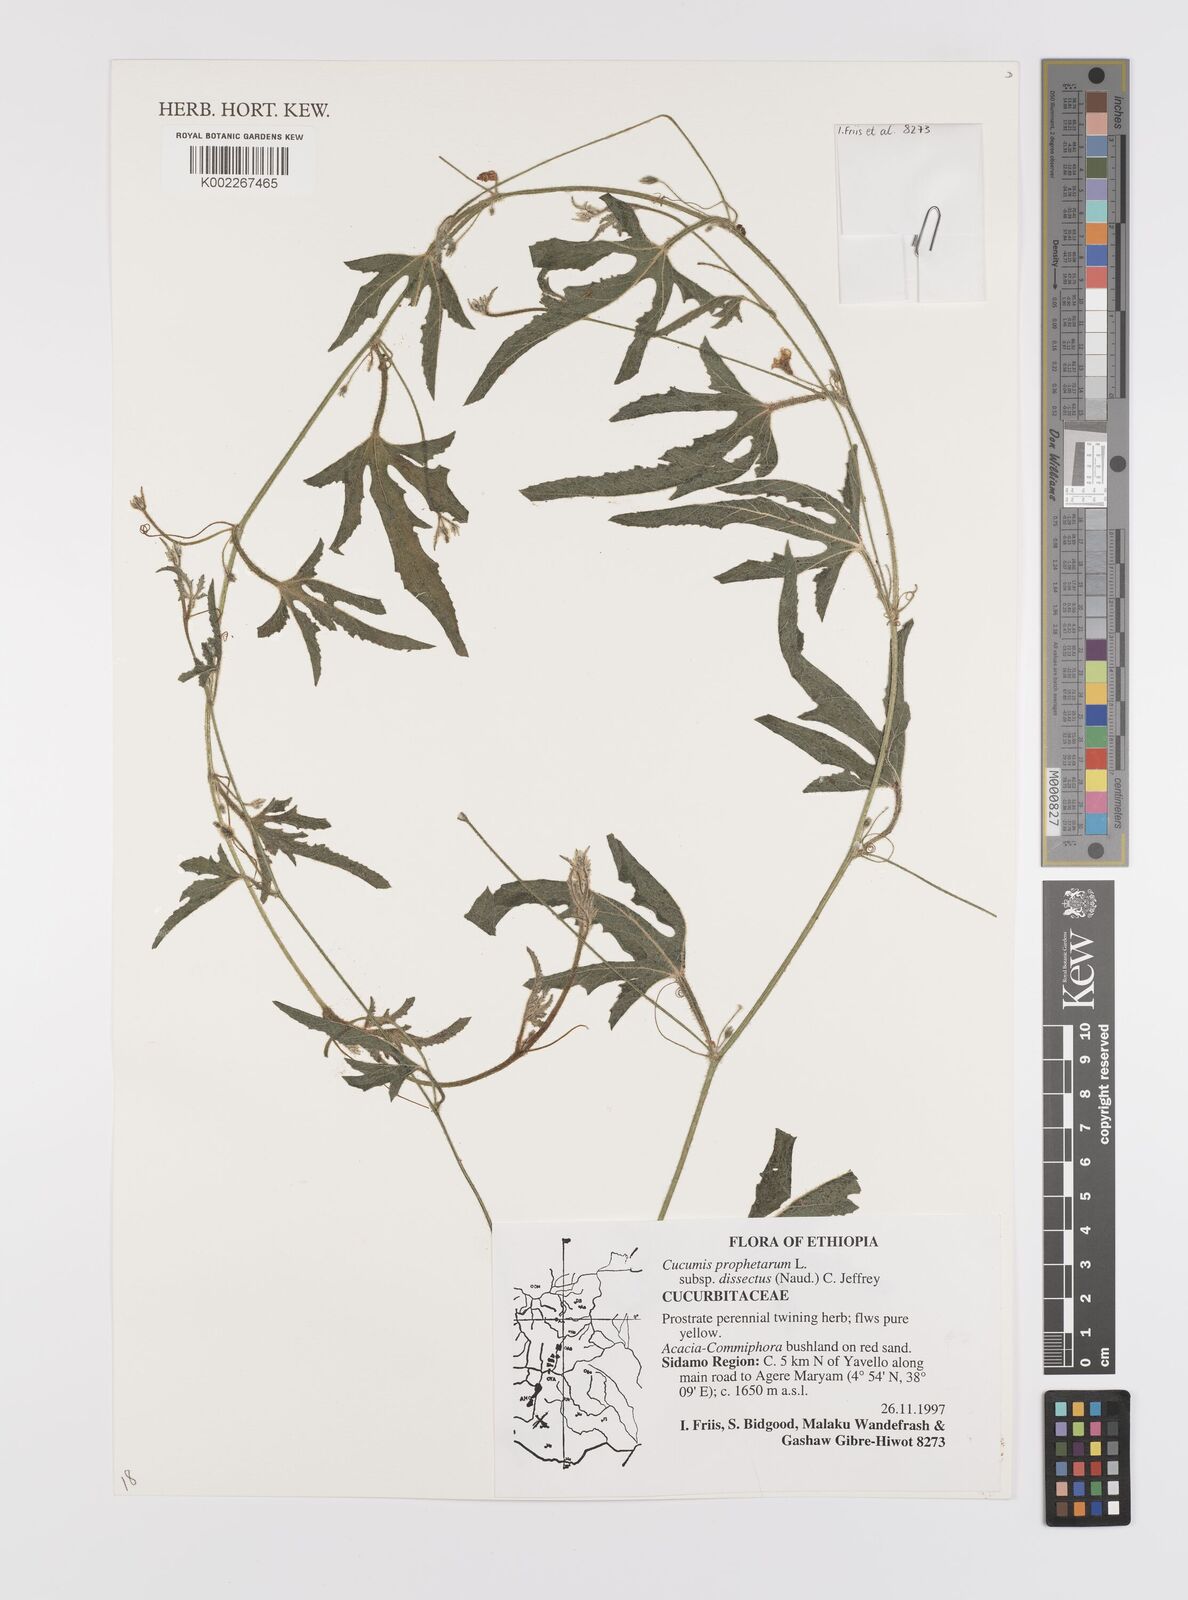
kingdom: Plantae
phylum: Tracheophyta
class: Magnoliopsida
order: Cucurbitales
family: Cucurbitaceae
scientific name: Cucurbitaceae
